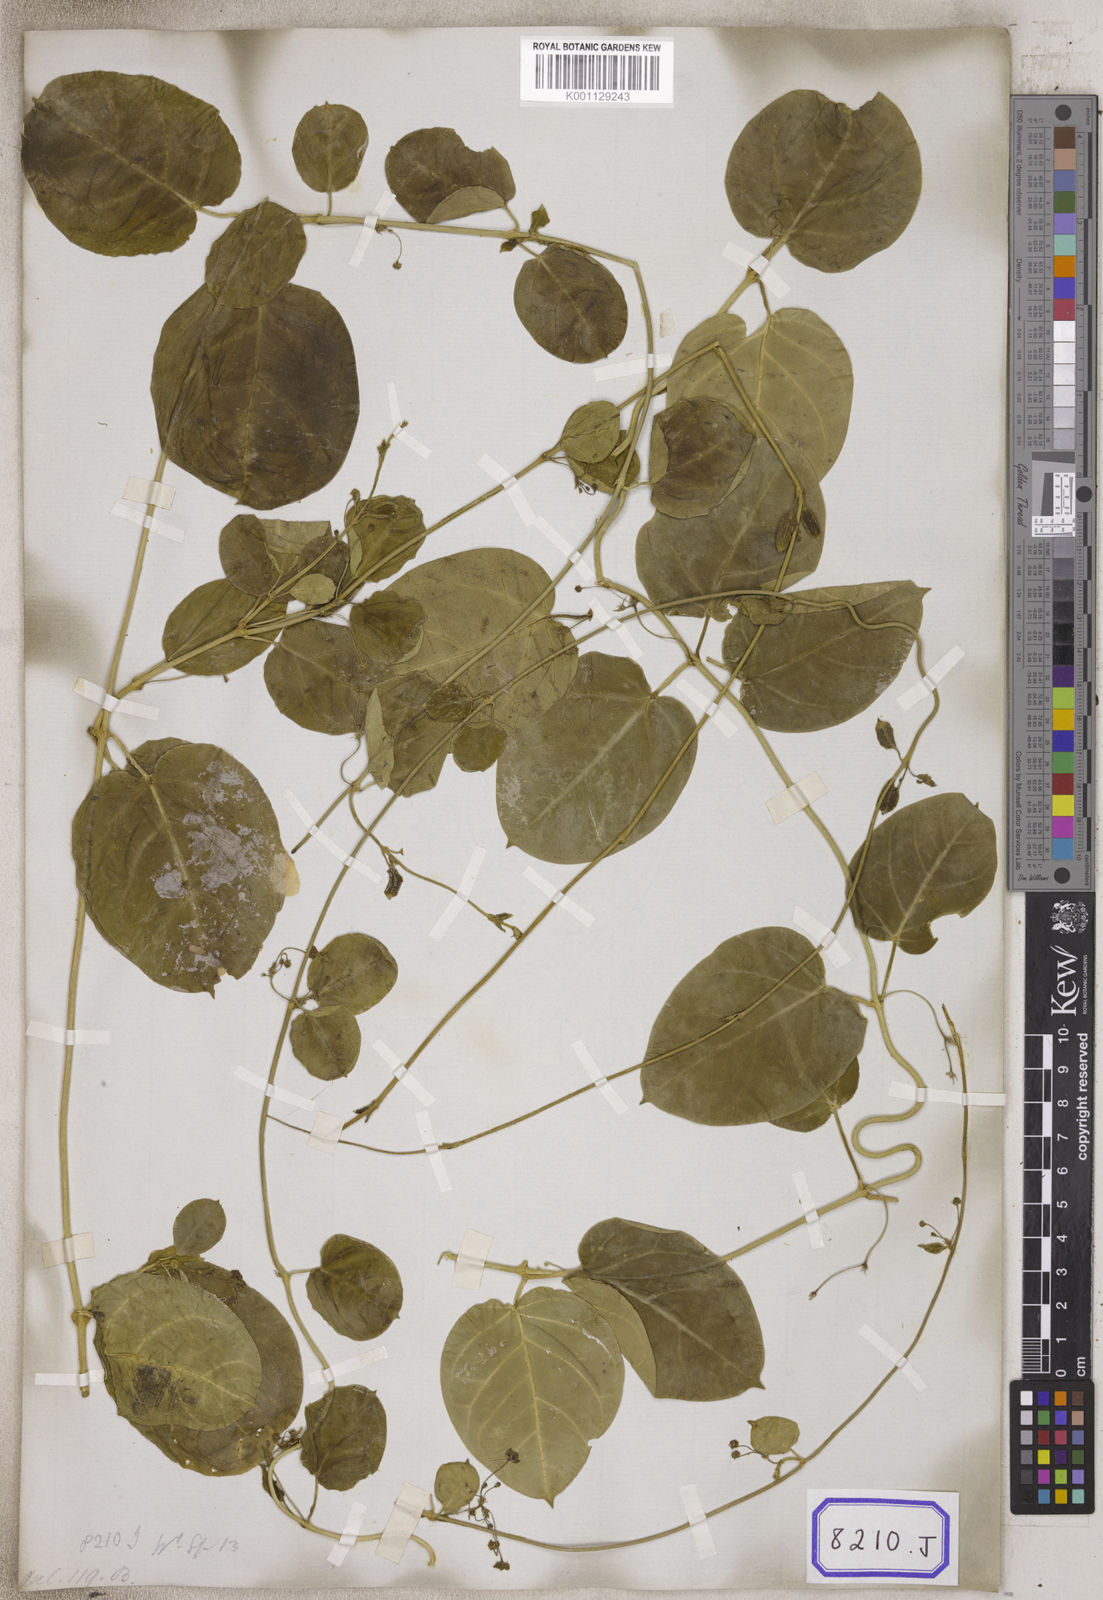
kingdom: Plantae
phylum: Tracheophyta
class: Magnoliopsida
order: Gentianales
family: Apocynaceae
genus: Vincetoxicum
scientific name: Vincetoxicum indicum
